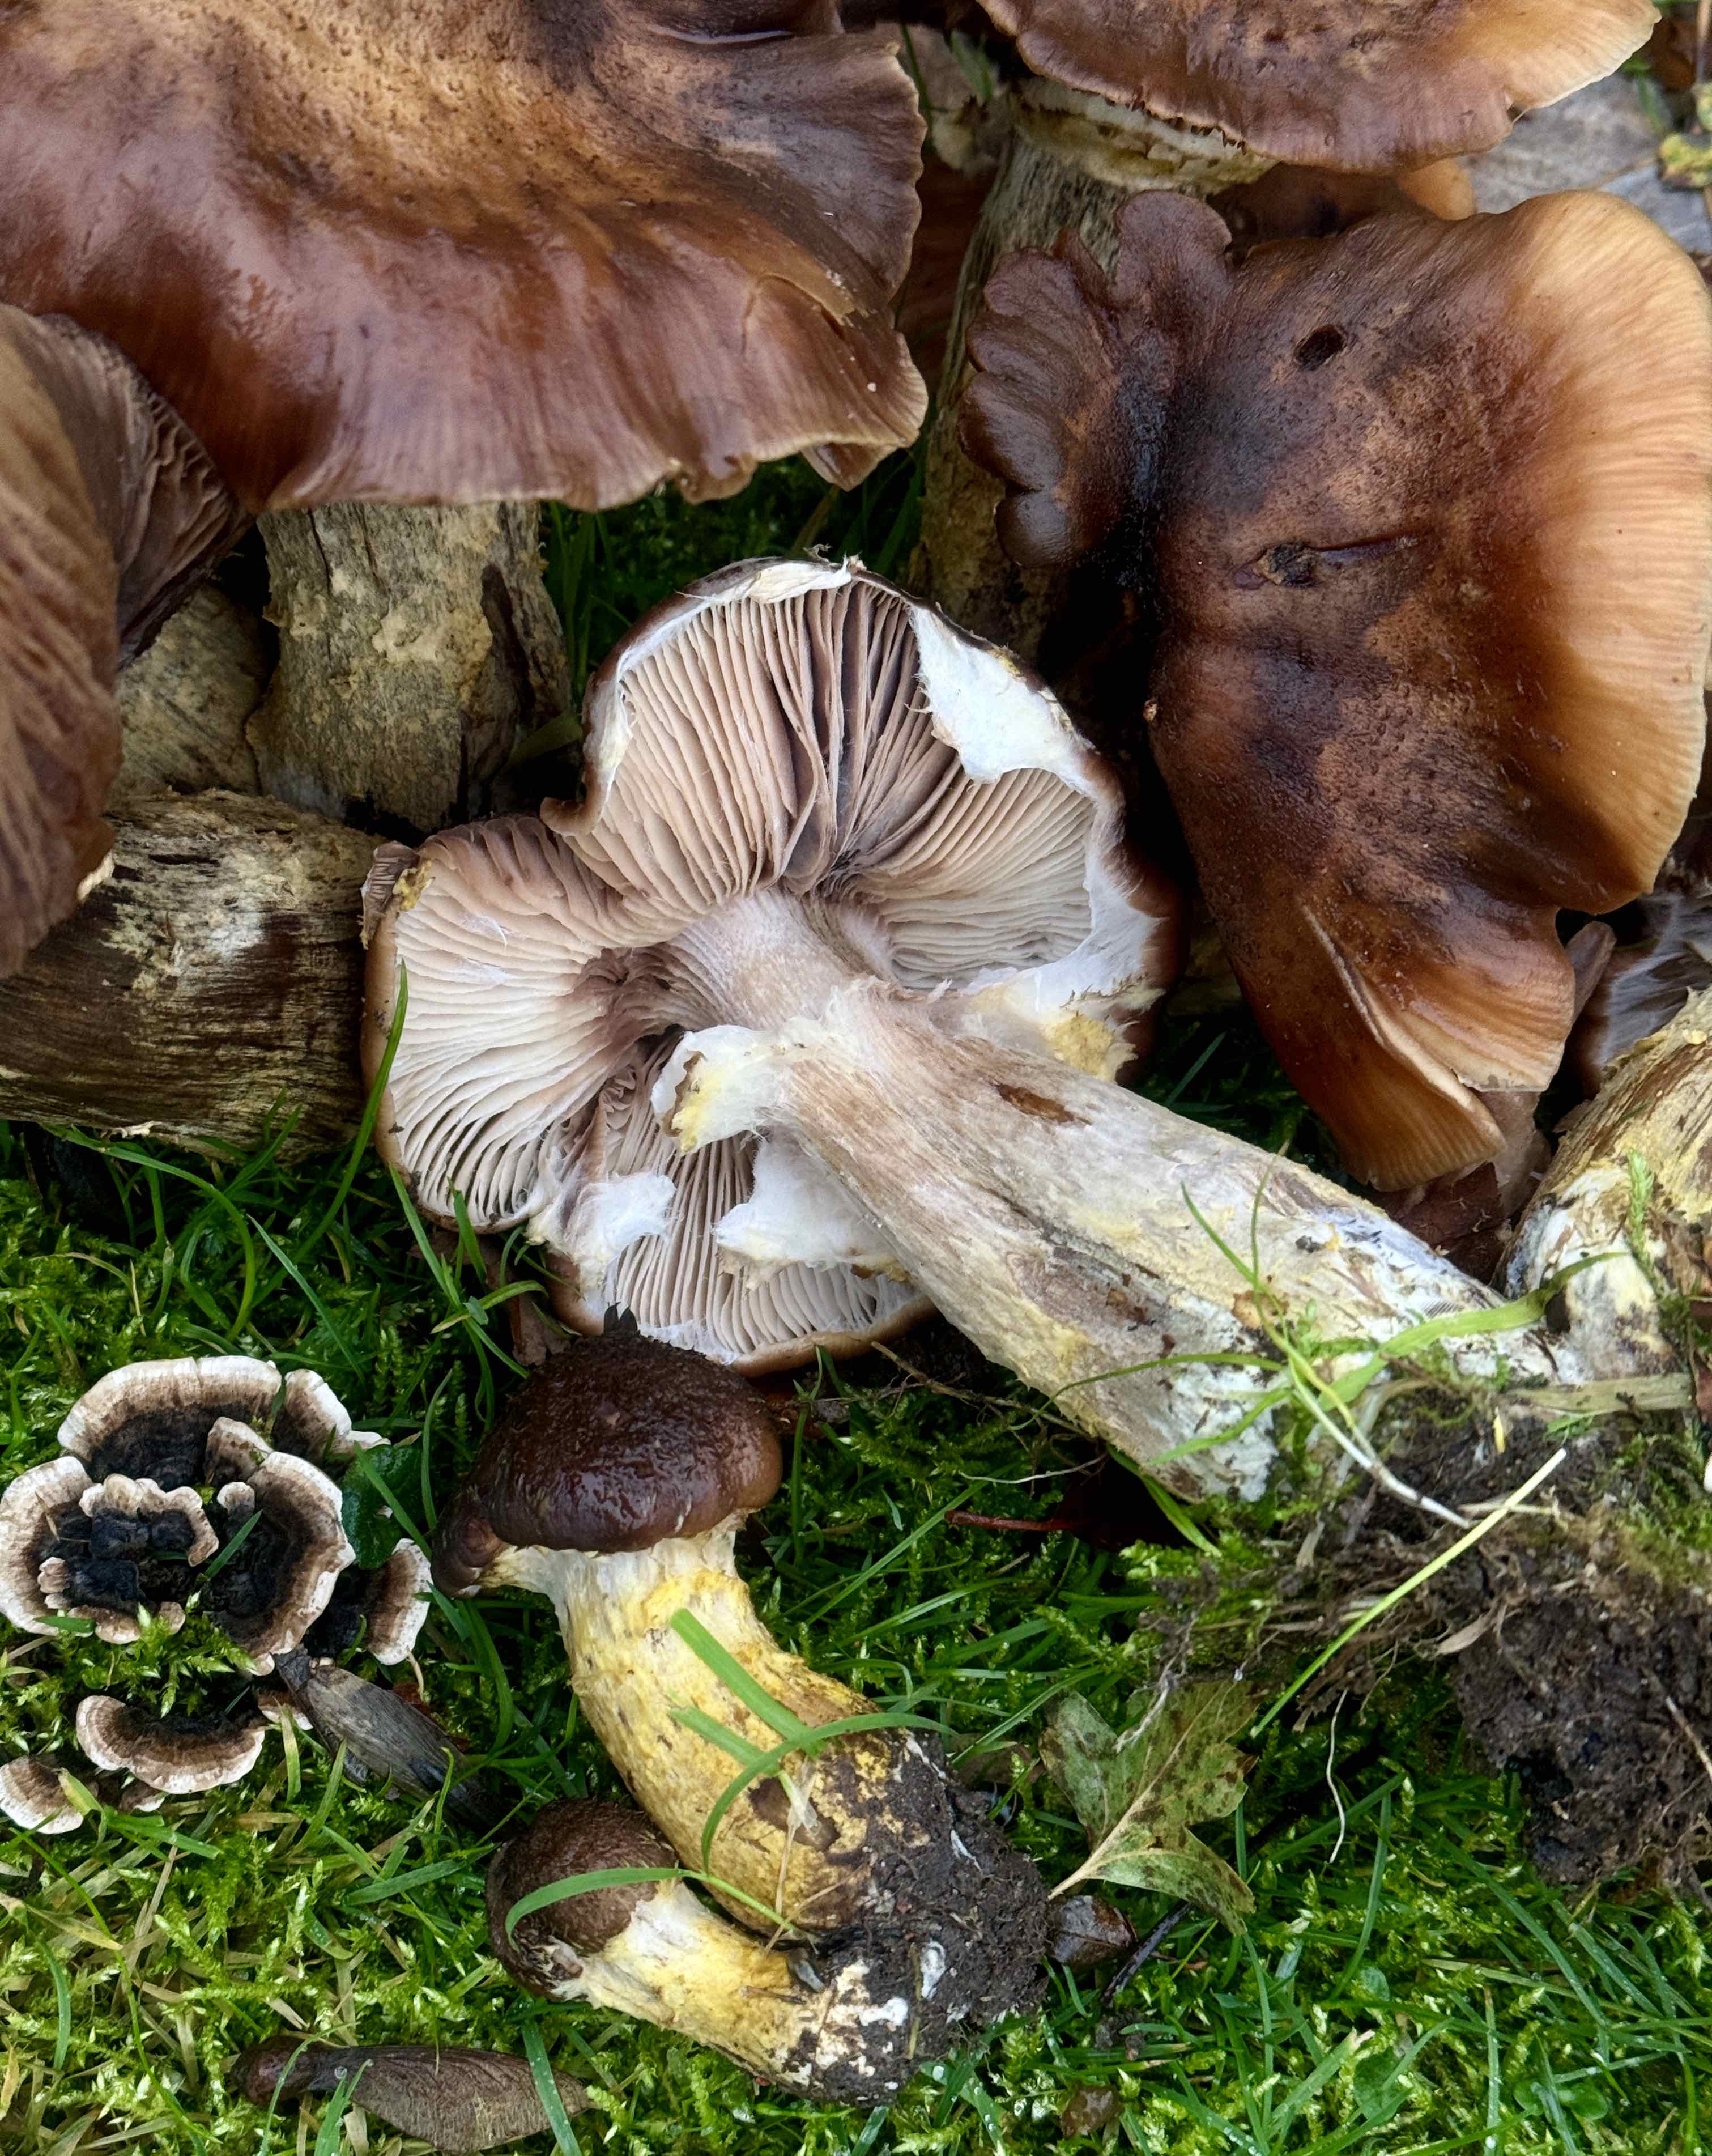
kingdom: Fungi
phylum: Basidiomycota
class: Agaricomycetes
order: Agaricales
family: Physalacriaceae
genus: Armillaria
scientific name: Armillaria lutea
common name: køllestokket honningsvamp
